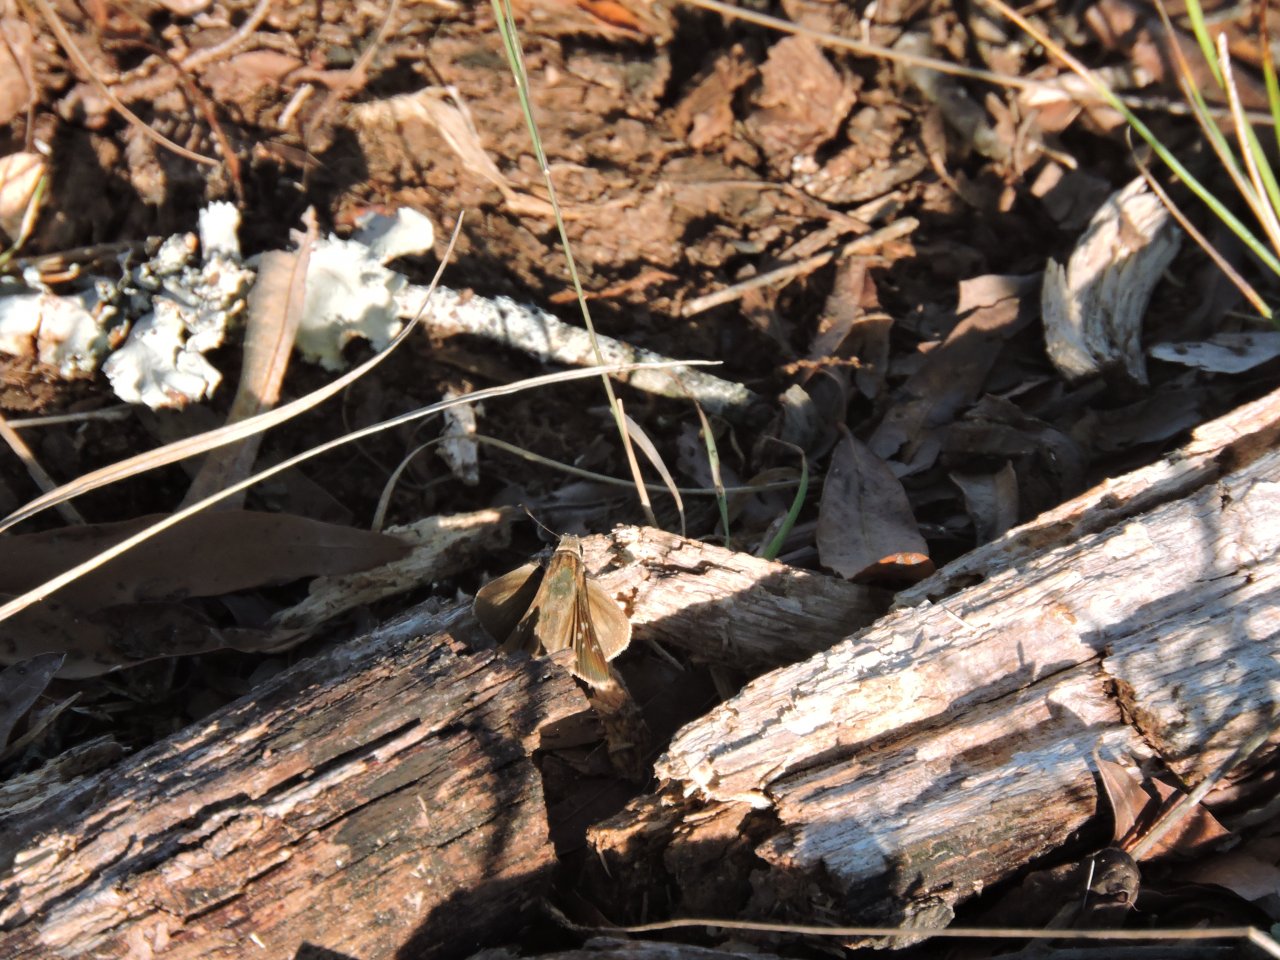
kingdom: Animalia
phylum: Arthropoda
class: Insecta
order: Lepidoptera
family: Hesperiidae
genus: Lerodea
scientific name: Lerodea eufala
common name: Eufala Skipper
